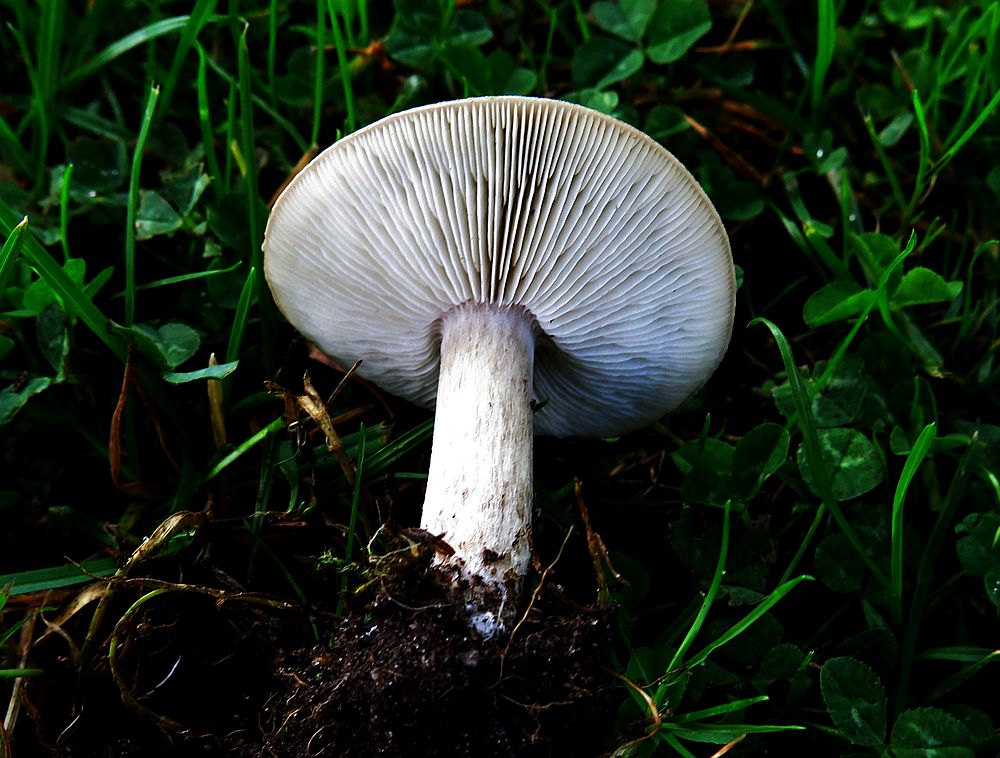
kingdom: Fungi
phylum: Basidiomycota
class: Agaricomycetes
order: Agaricales
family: Tricholomataceae
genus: Melanoleuca
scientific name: Melanoleuca polioleuca
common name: almindelig munkehat
